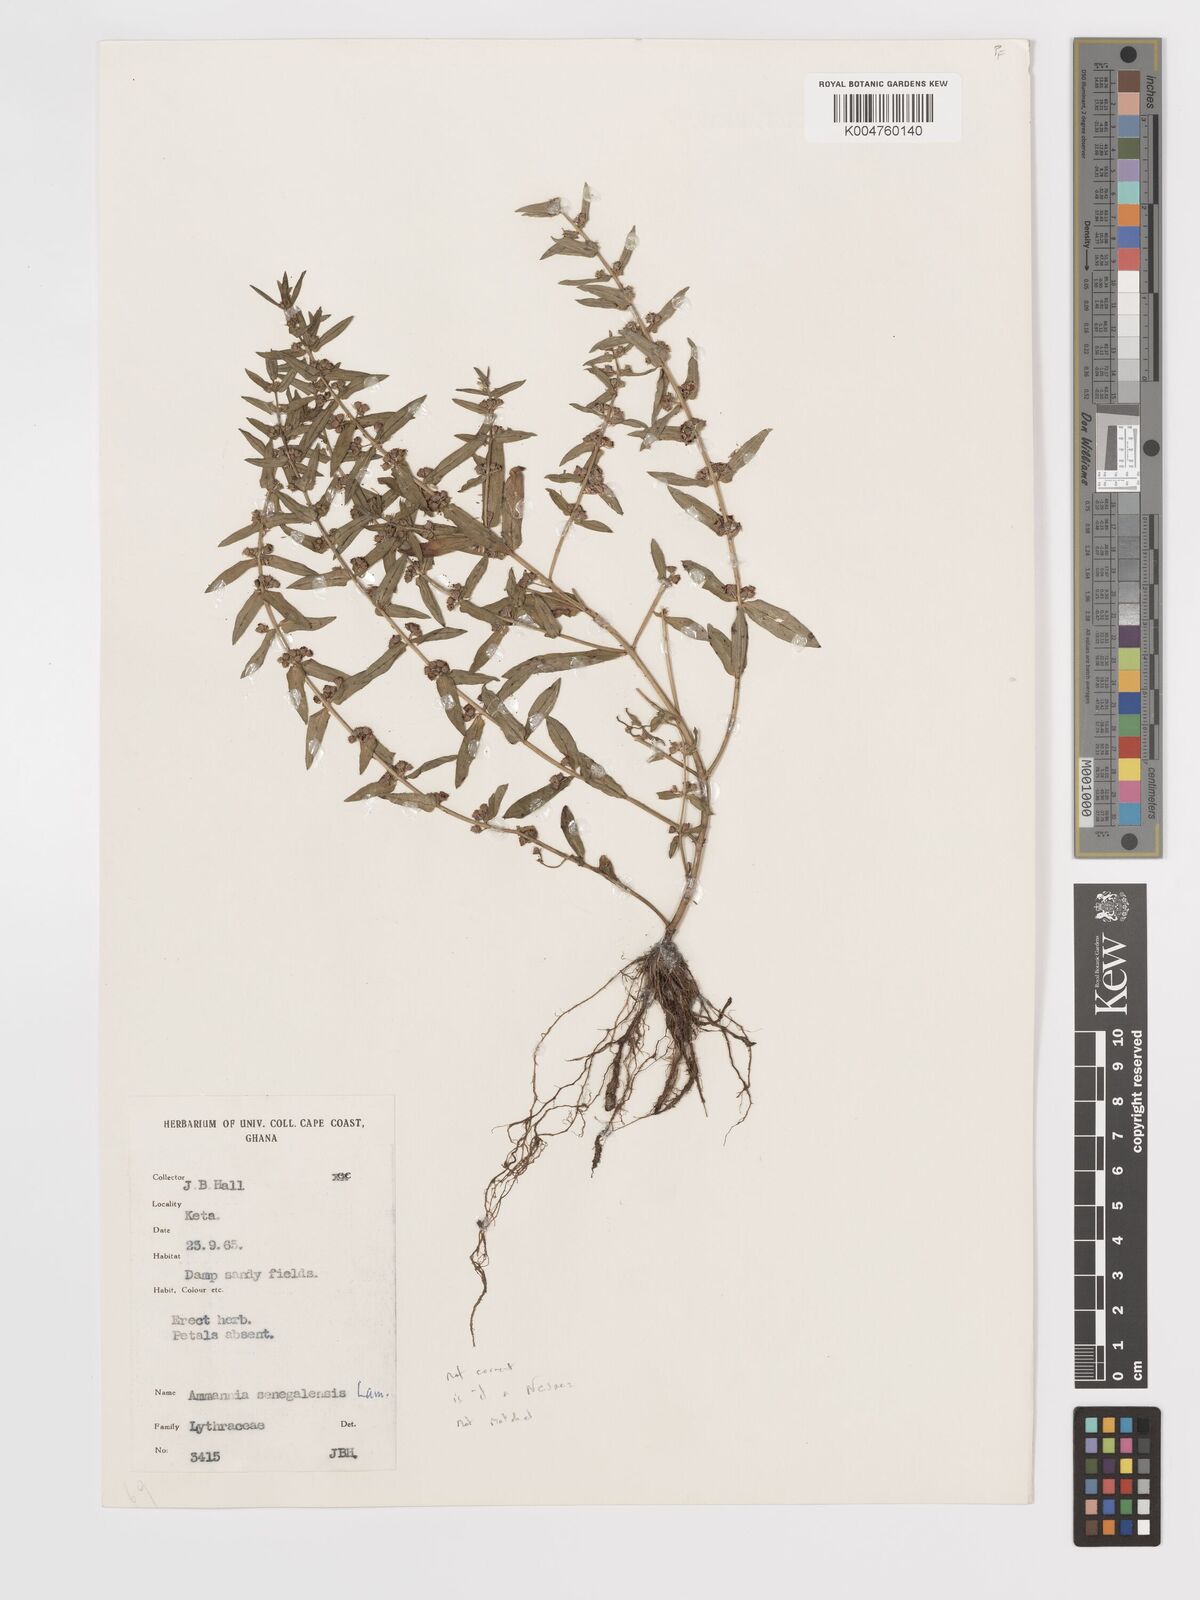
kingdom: Plantae
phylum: Tracheophyta
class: Magnoliopsida
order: Myrtales
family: Lythraceae
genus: Ammannia
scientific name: Ammannia senegalensis
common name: Red ammannia
